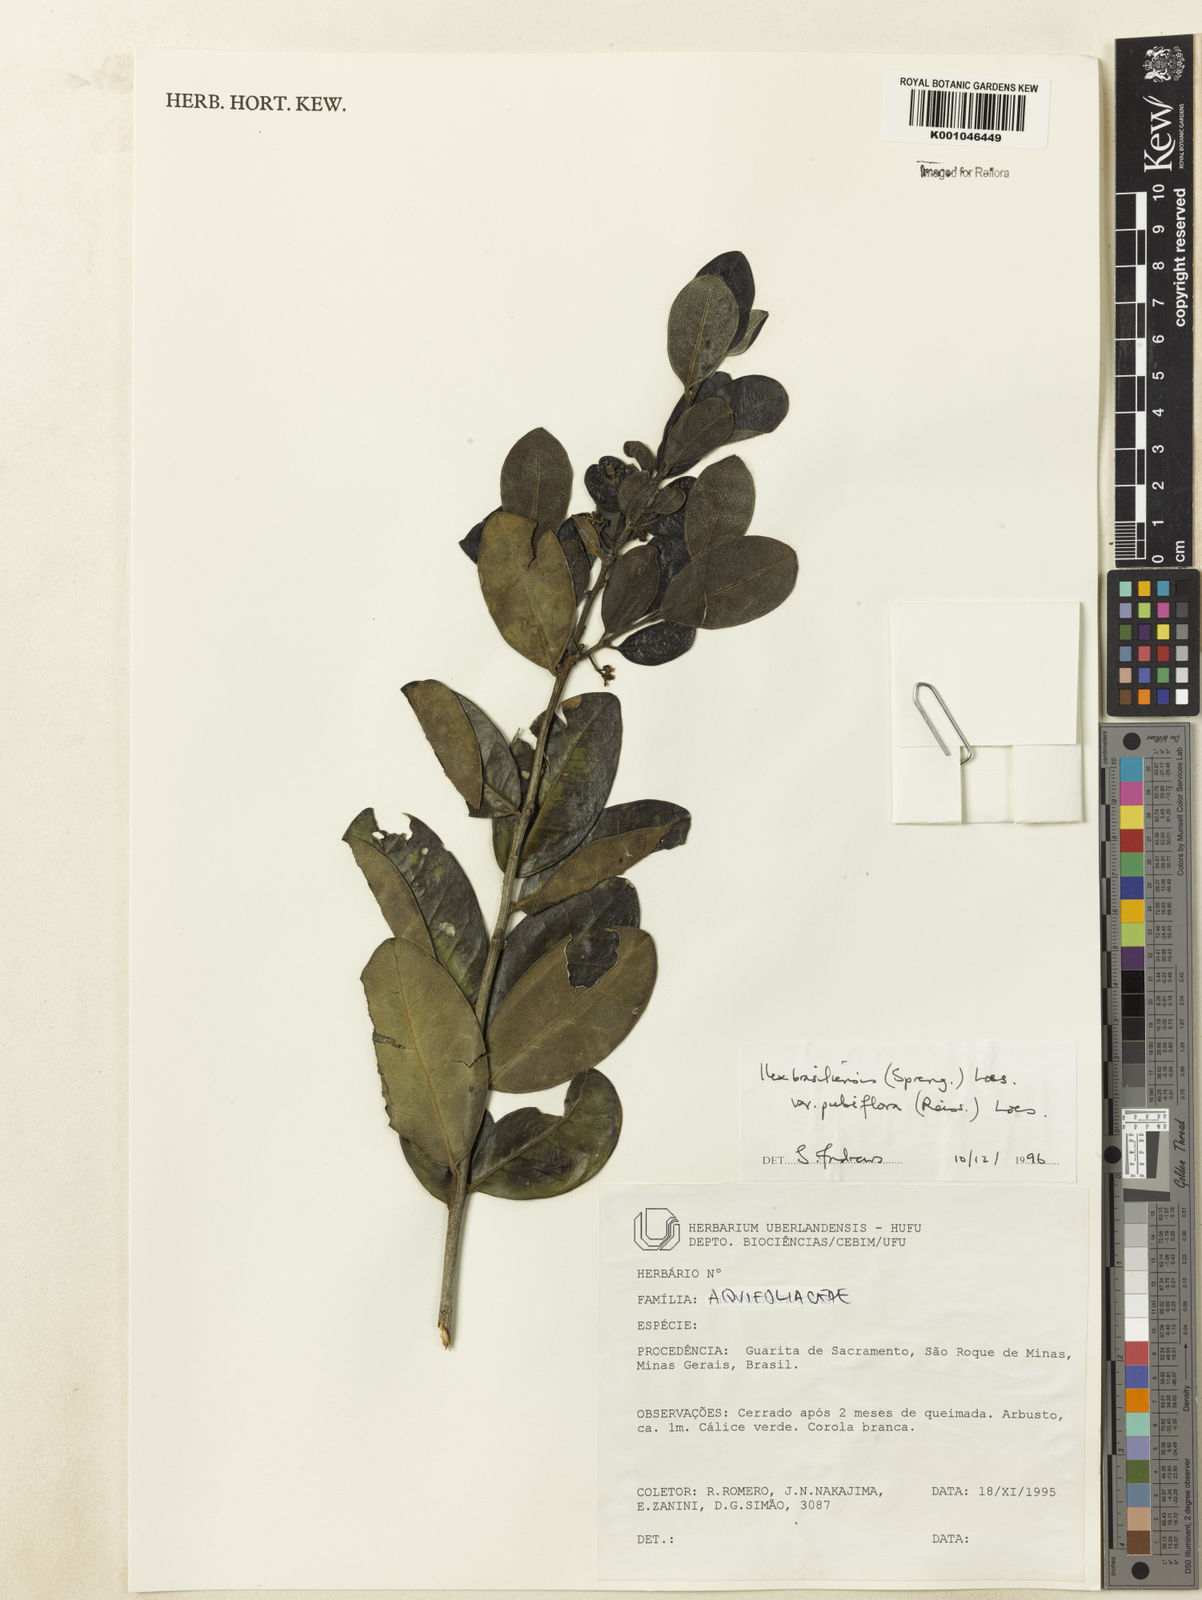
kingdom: Plantae
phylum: Tracheophyta
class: Magnoliopsida
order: Aquifoliales
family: Aquifoliaceae
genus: Ilex
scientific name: Ilex brasiliensis
